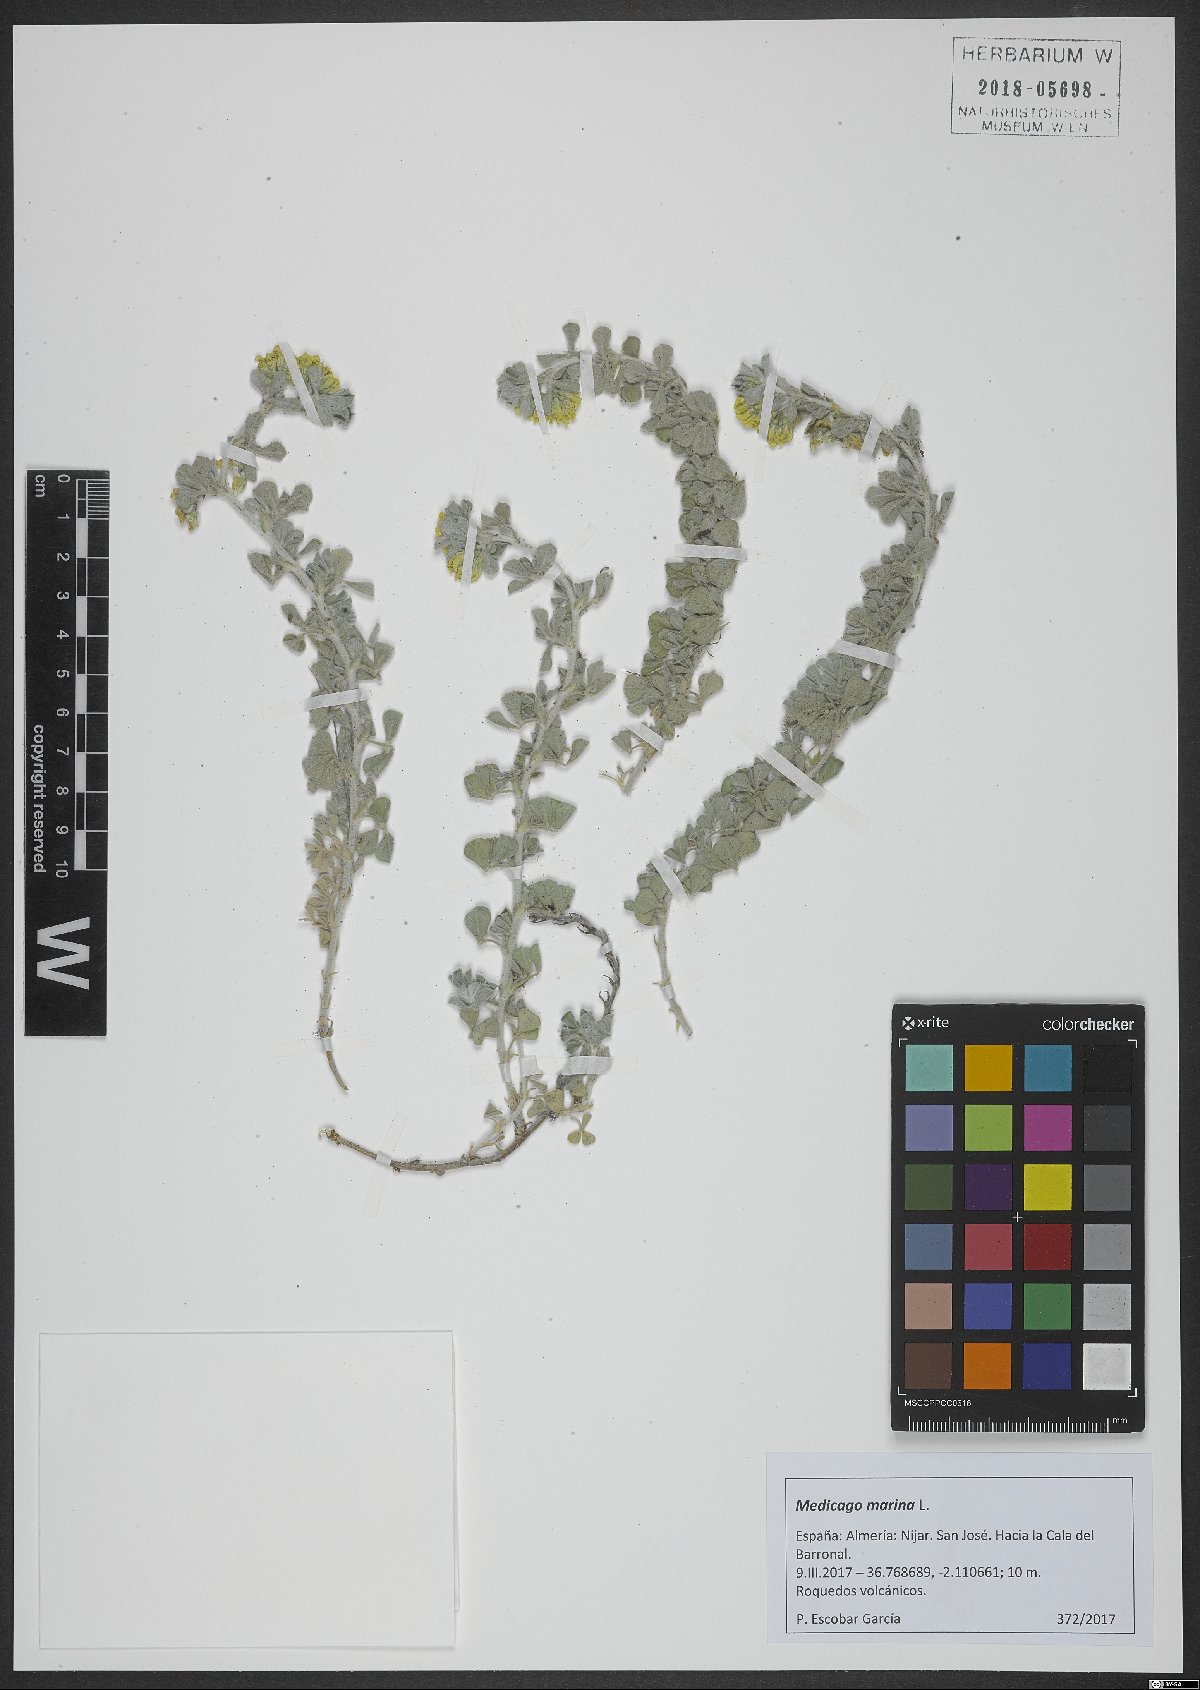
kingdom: Plantae
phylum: Tracheophyta
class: Magnoliopsida
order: Fabales
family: Fabaceae
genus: Medicago
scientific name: Medicago marina
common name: Sea medick
